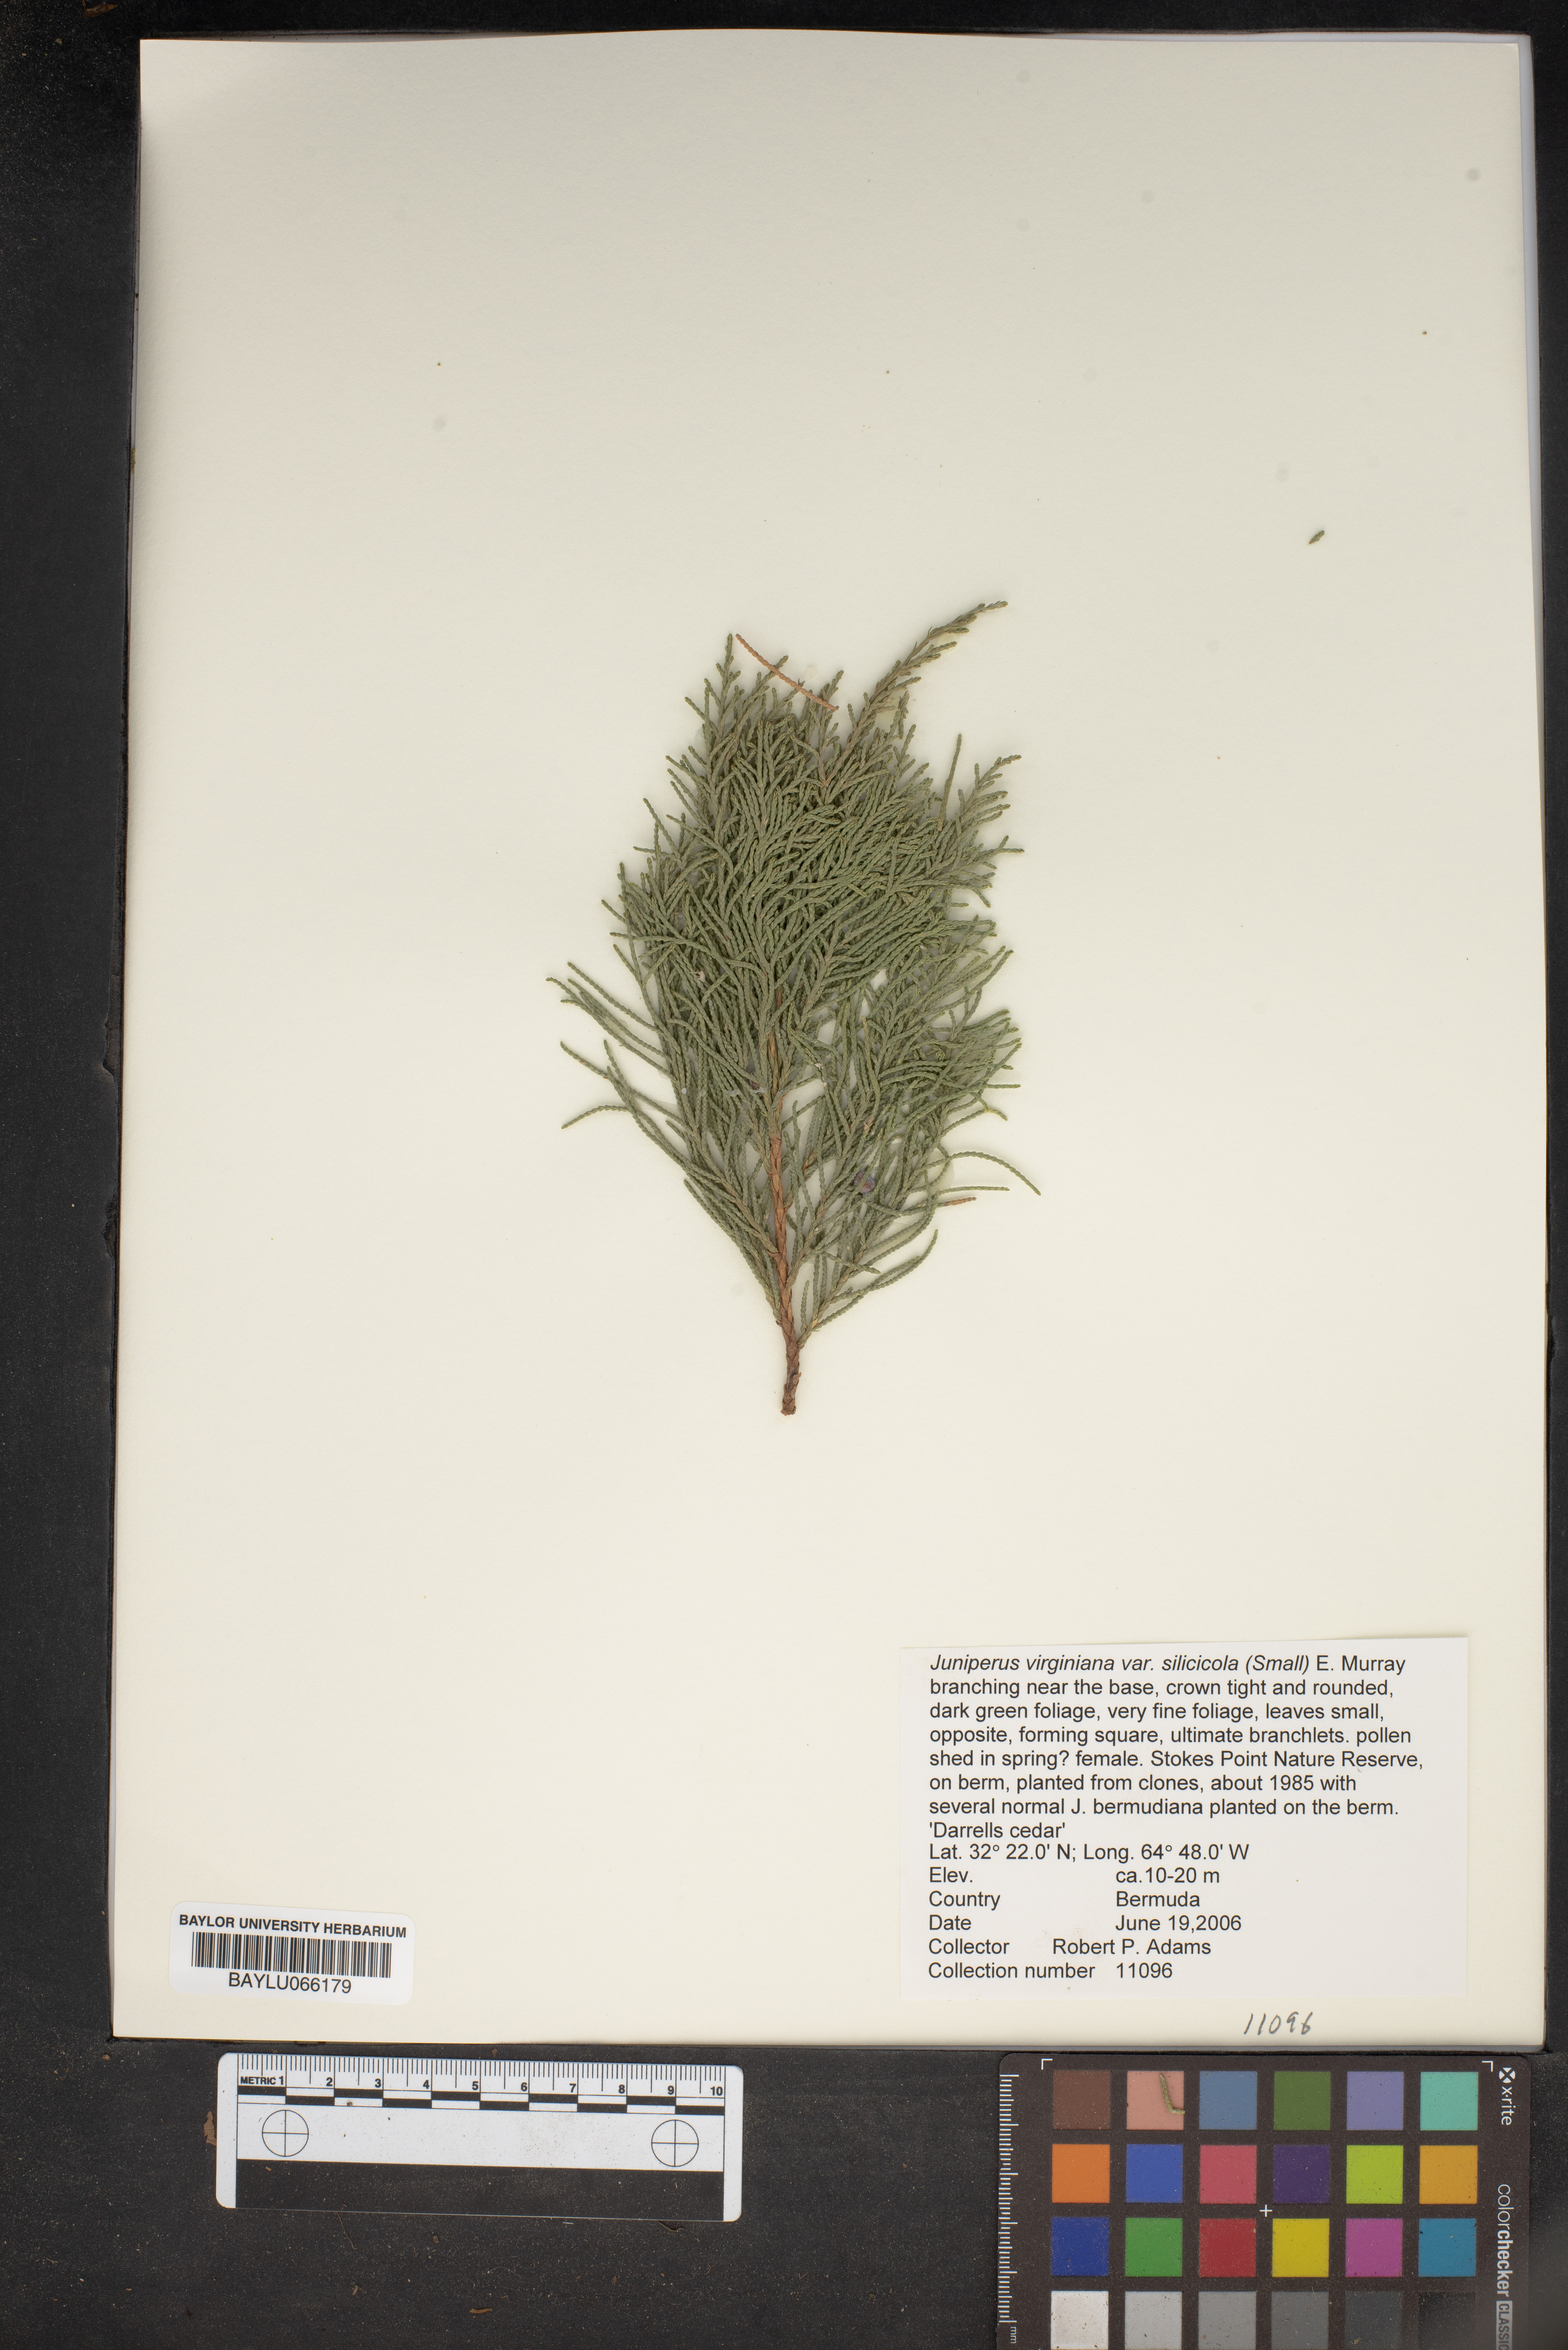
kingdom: Plantae
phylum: Tracheophyta
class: Pinopsida
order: Pinales
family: Cupressaceae
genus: Juniperus
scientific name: Juniperus virginiana
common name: Red juniper
